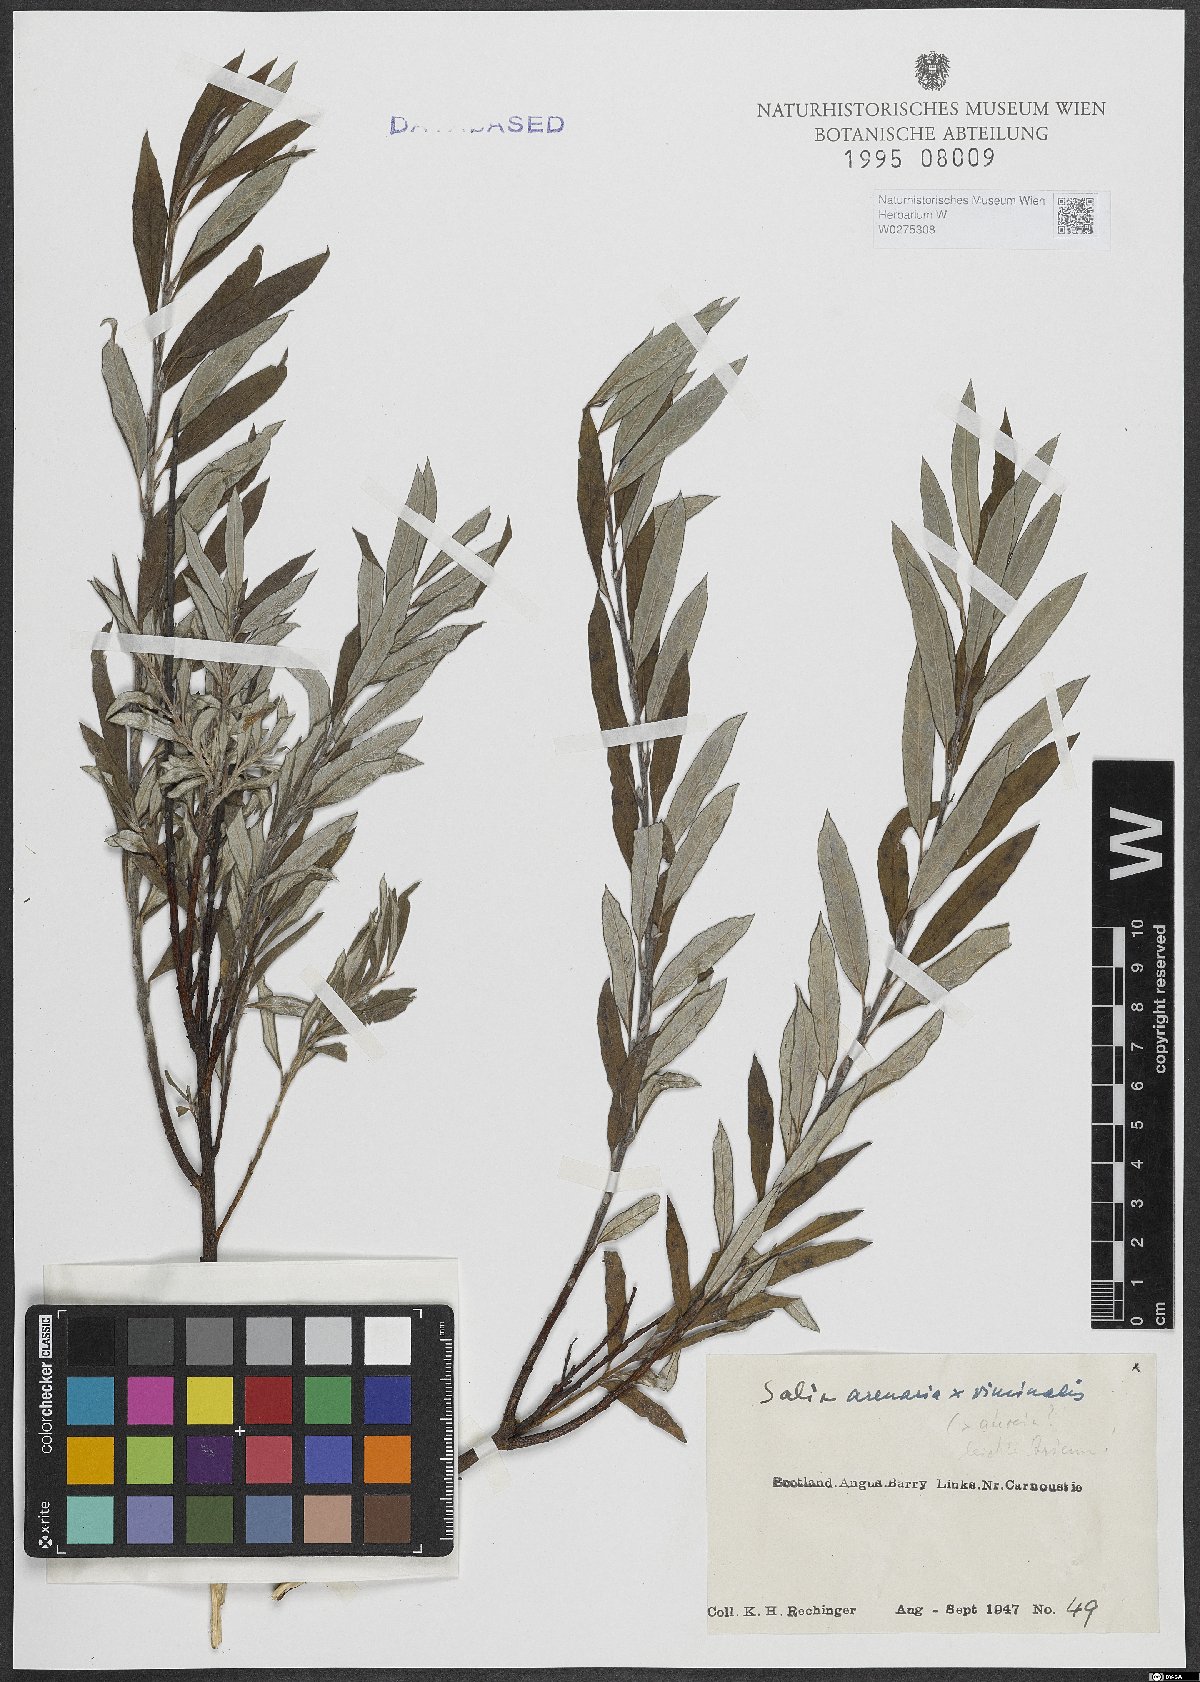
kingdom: Plantae
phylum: Tracheophyta
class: Magnoliopsida
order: Malpighiales
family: Salicaceae
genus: Salix
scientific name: Salix repens
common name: Creeping willow
